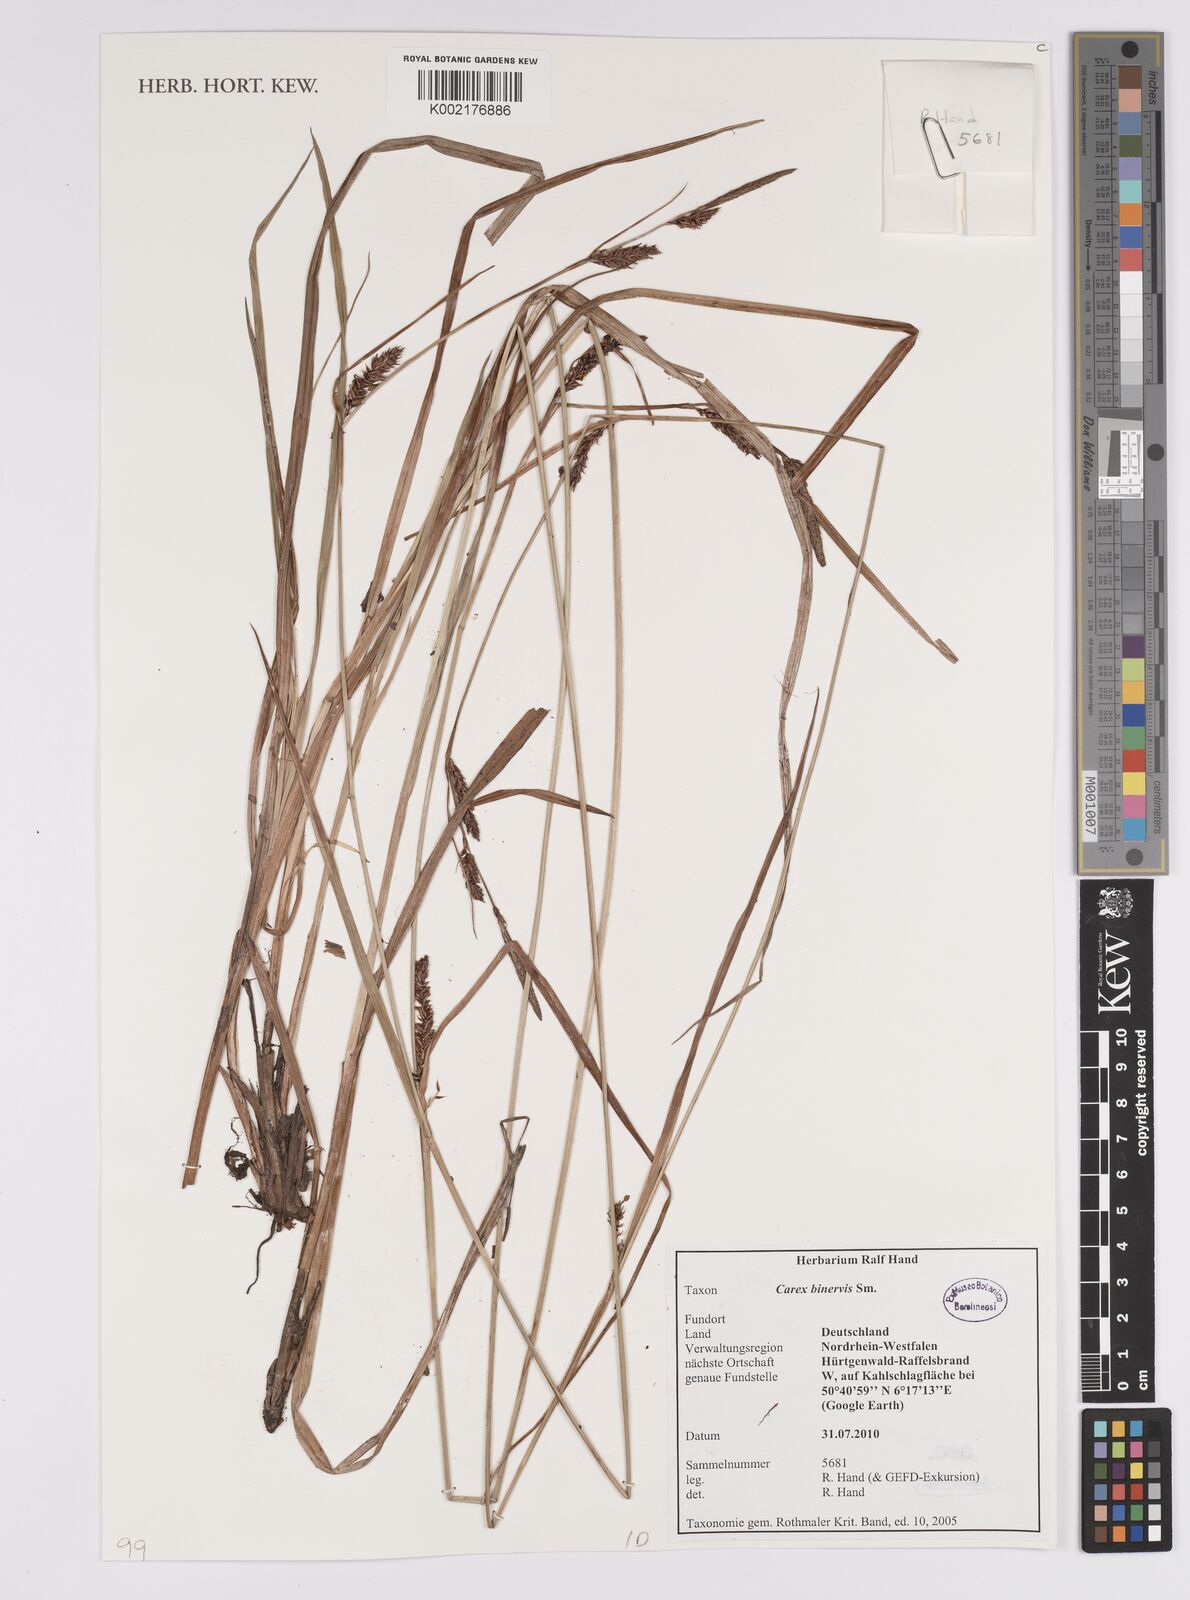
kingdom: Plantae
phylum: Tracheophyta
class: Liliopsida
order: Poales
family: Cyperaceae
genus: Carex
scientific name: Carex binervis
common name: Green-ribbed sedge
